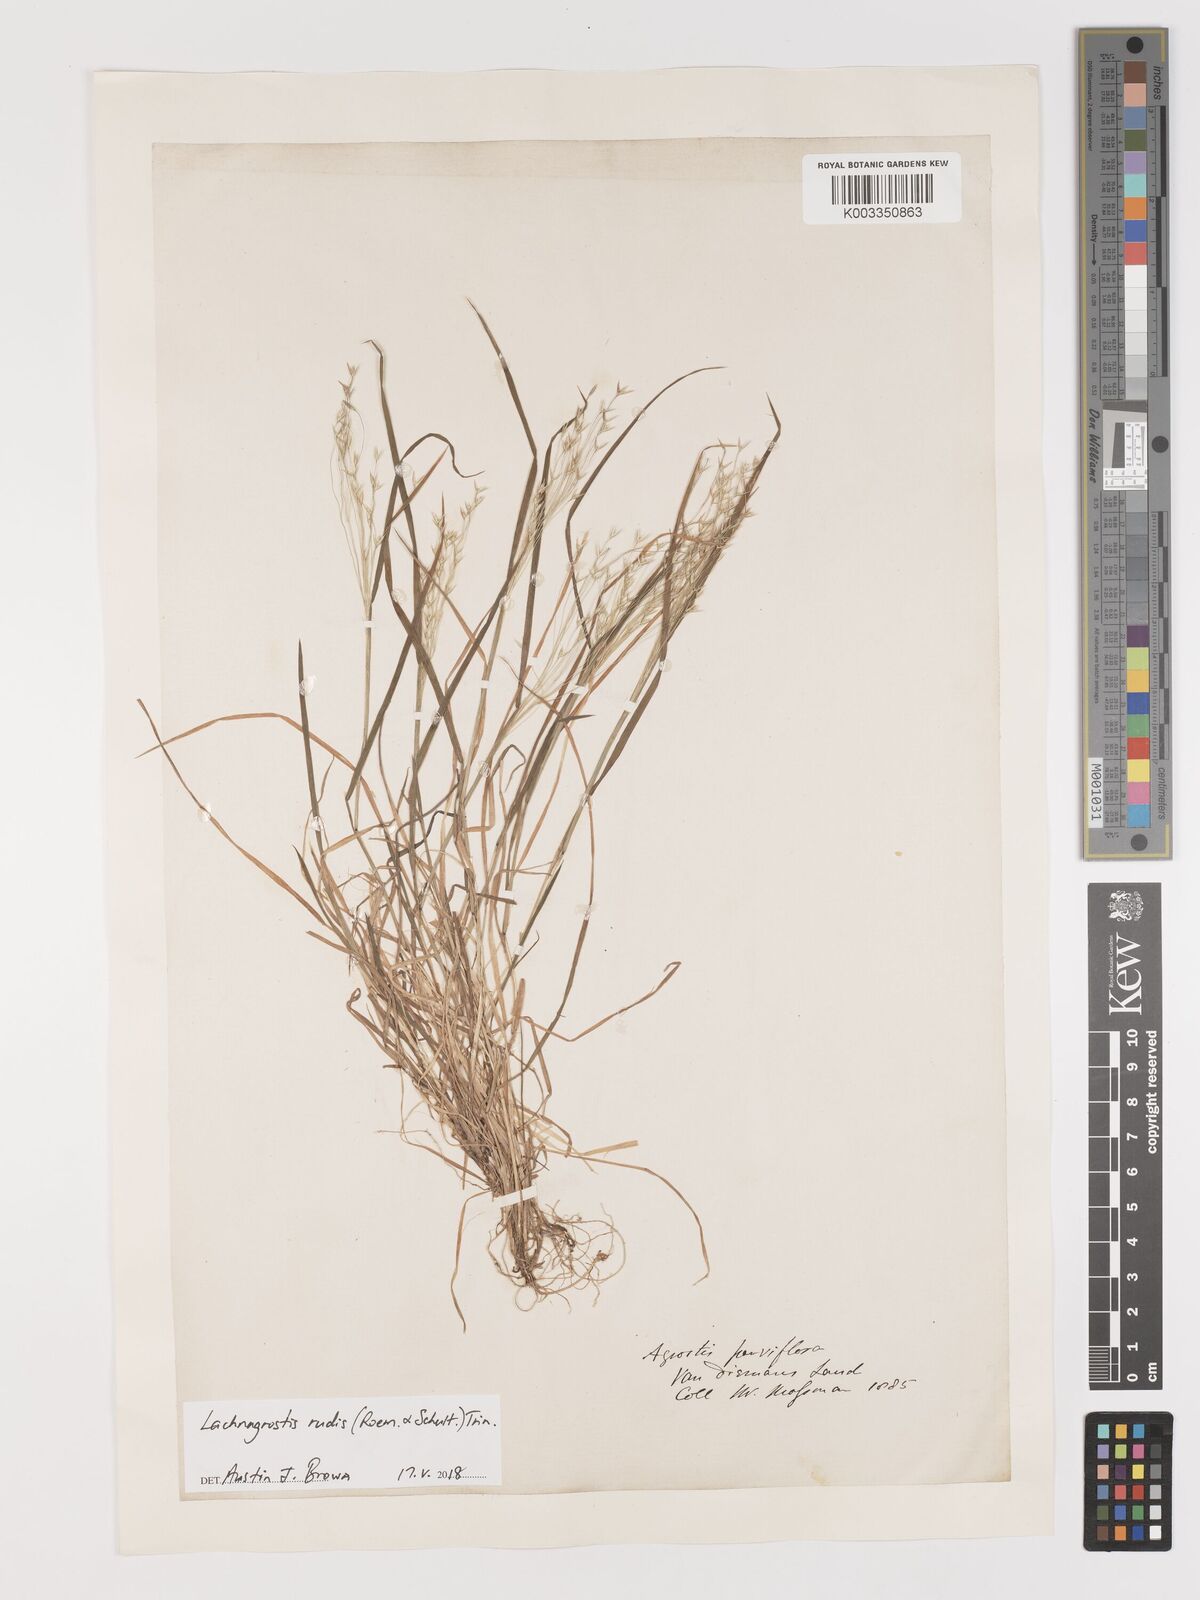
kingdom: Plantae
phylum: Tracheophyta
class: Liliopsida
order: Poales
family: Poaceae
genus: Lachnagrostis
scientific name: Lachnagrostis rudis
